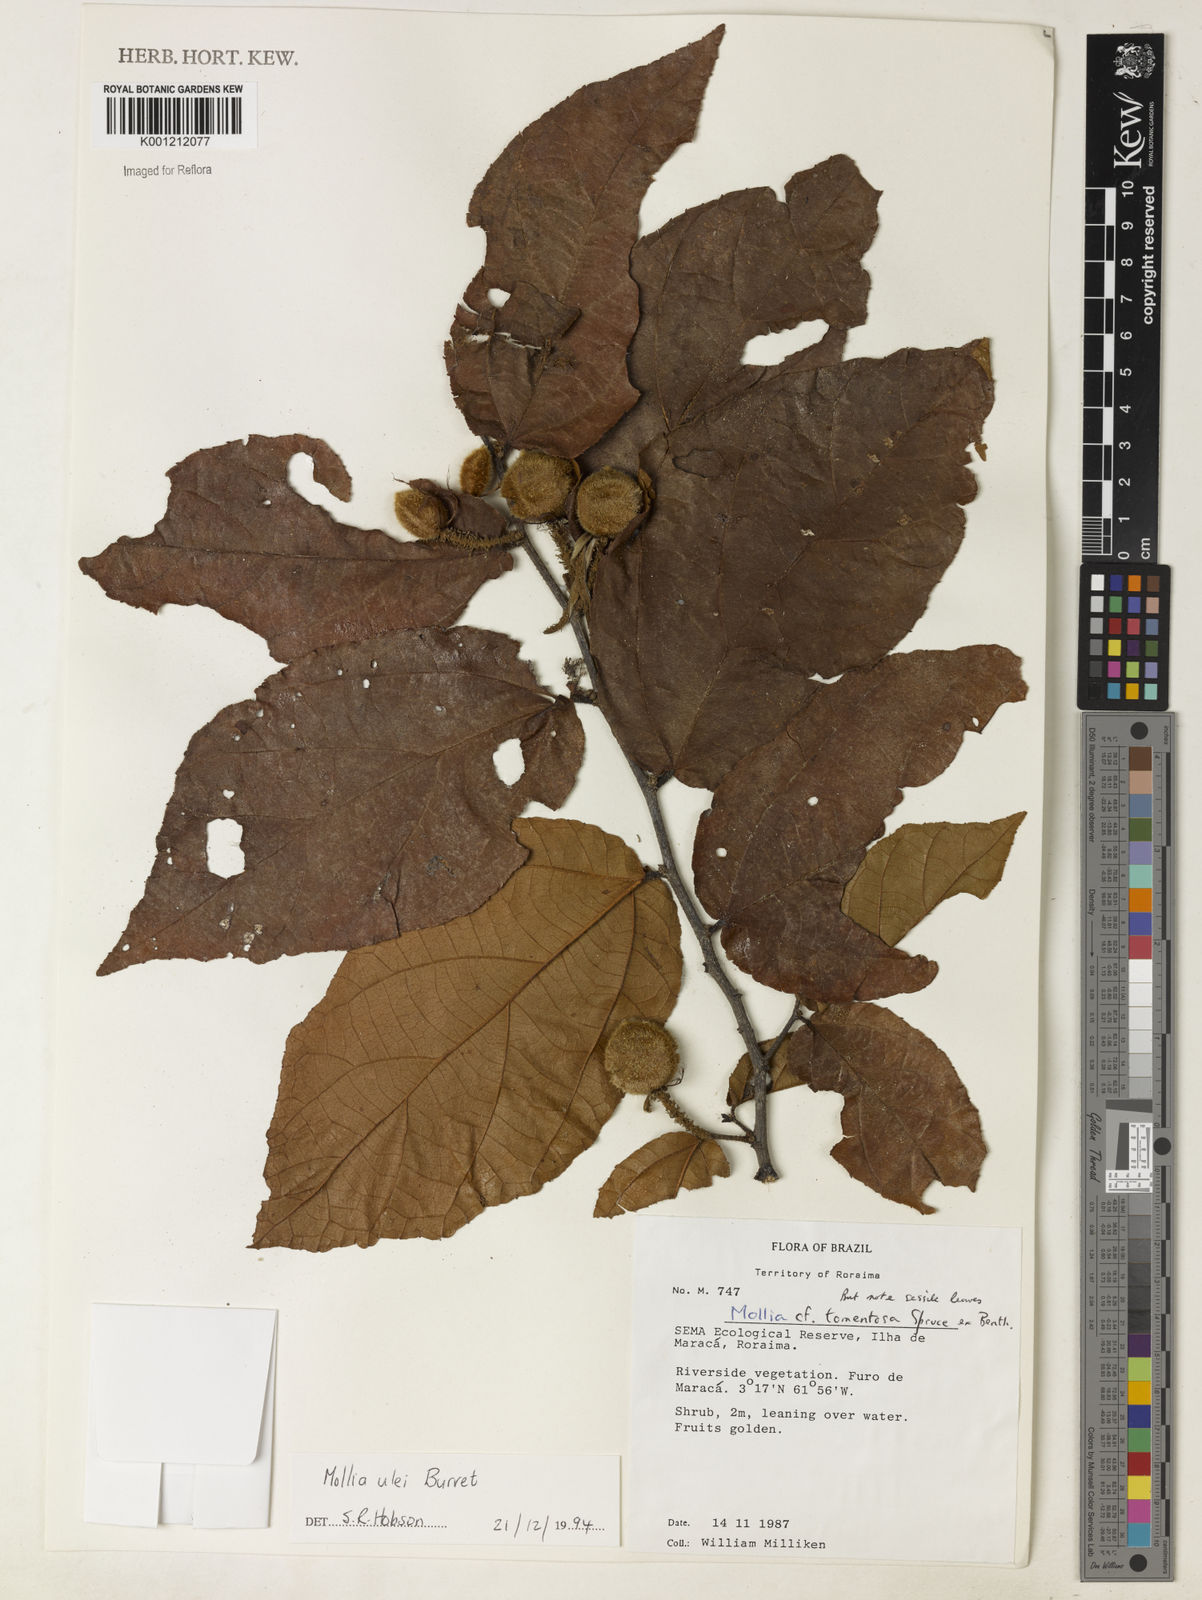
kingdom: Plantae
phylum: Tracheophyta
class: Magnoliopsida
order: Malvales
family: Malvaceae
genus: Mollia
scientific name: Mollia ulei
